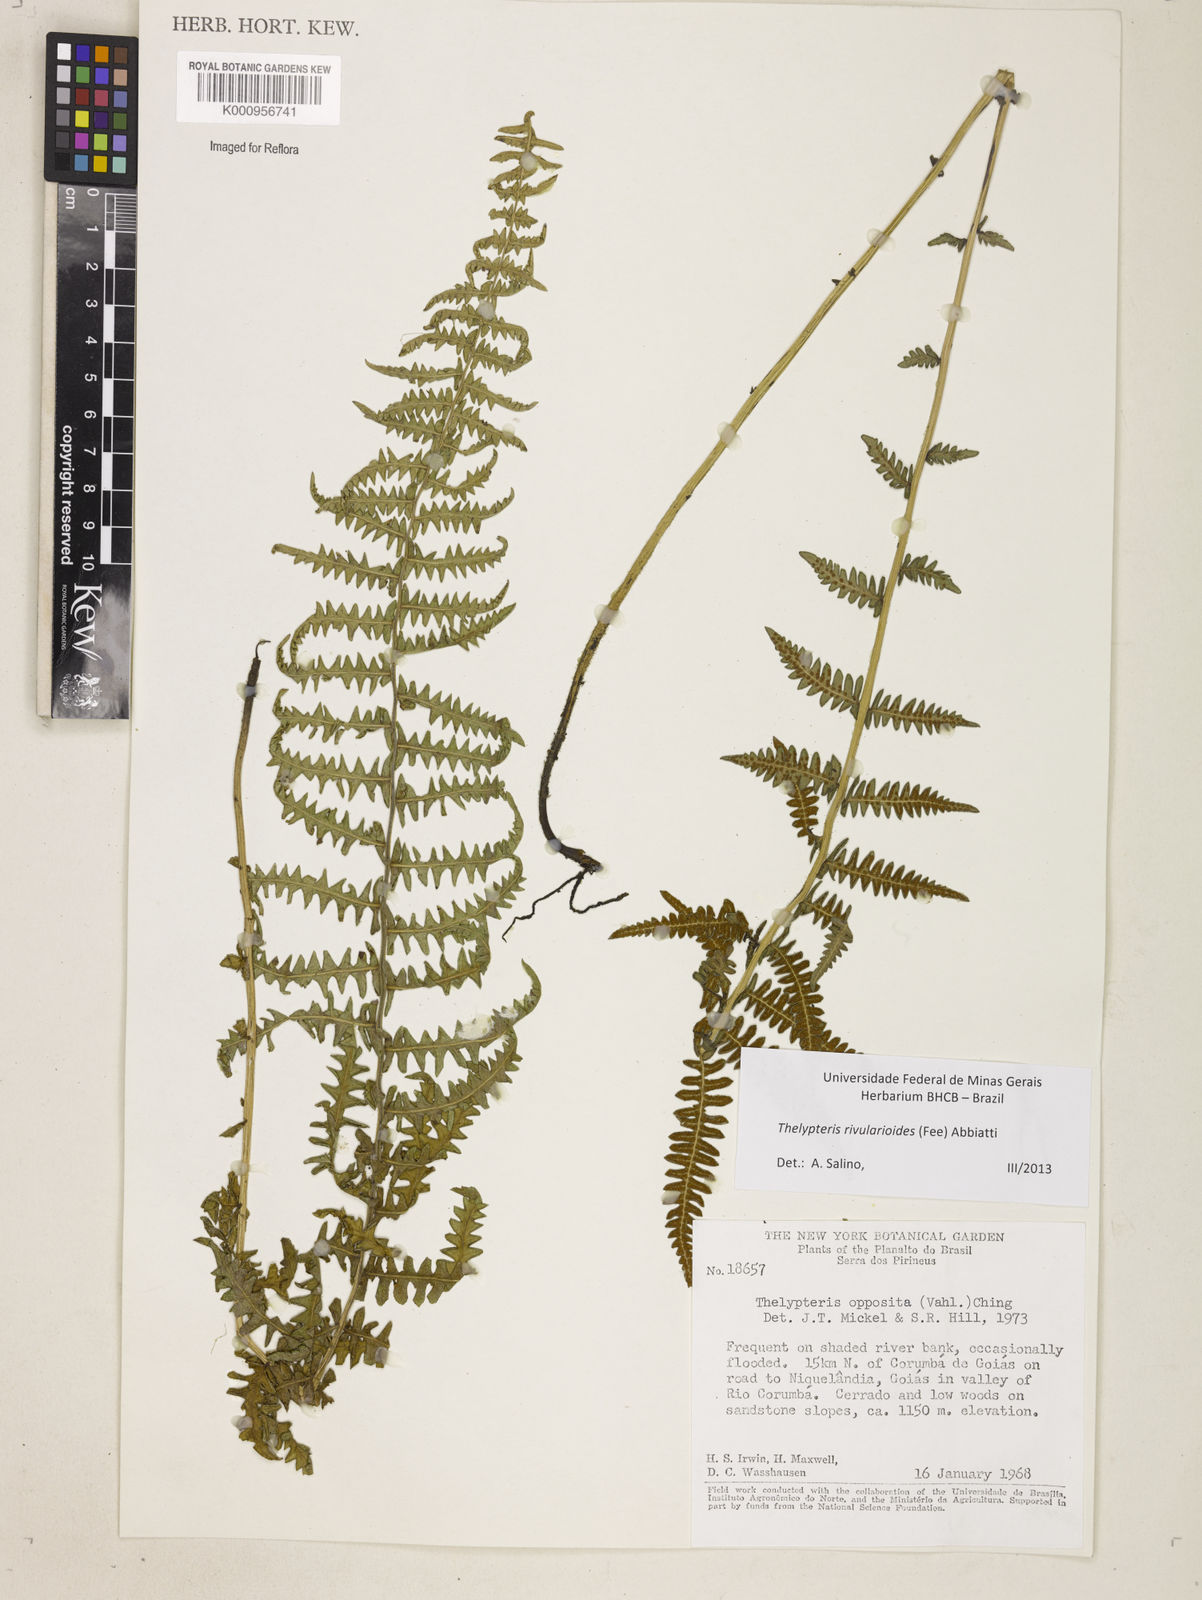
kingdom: Plantae
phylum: Tracheophyta
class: Polypodiopsida
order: Polypodiales
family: Thelypteridaceae
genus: Amauropelta
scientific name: Amauropelta rivularioides
